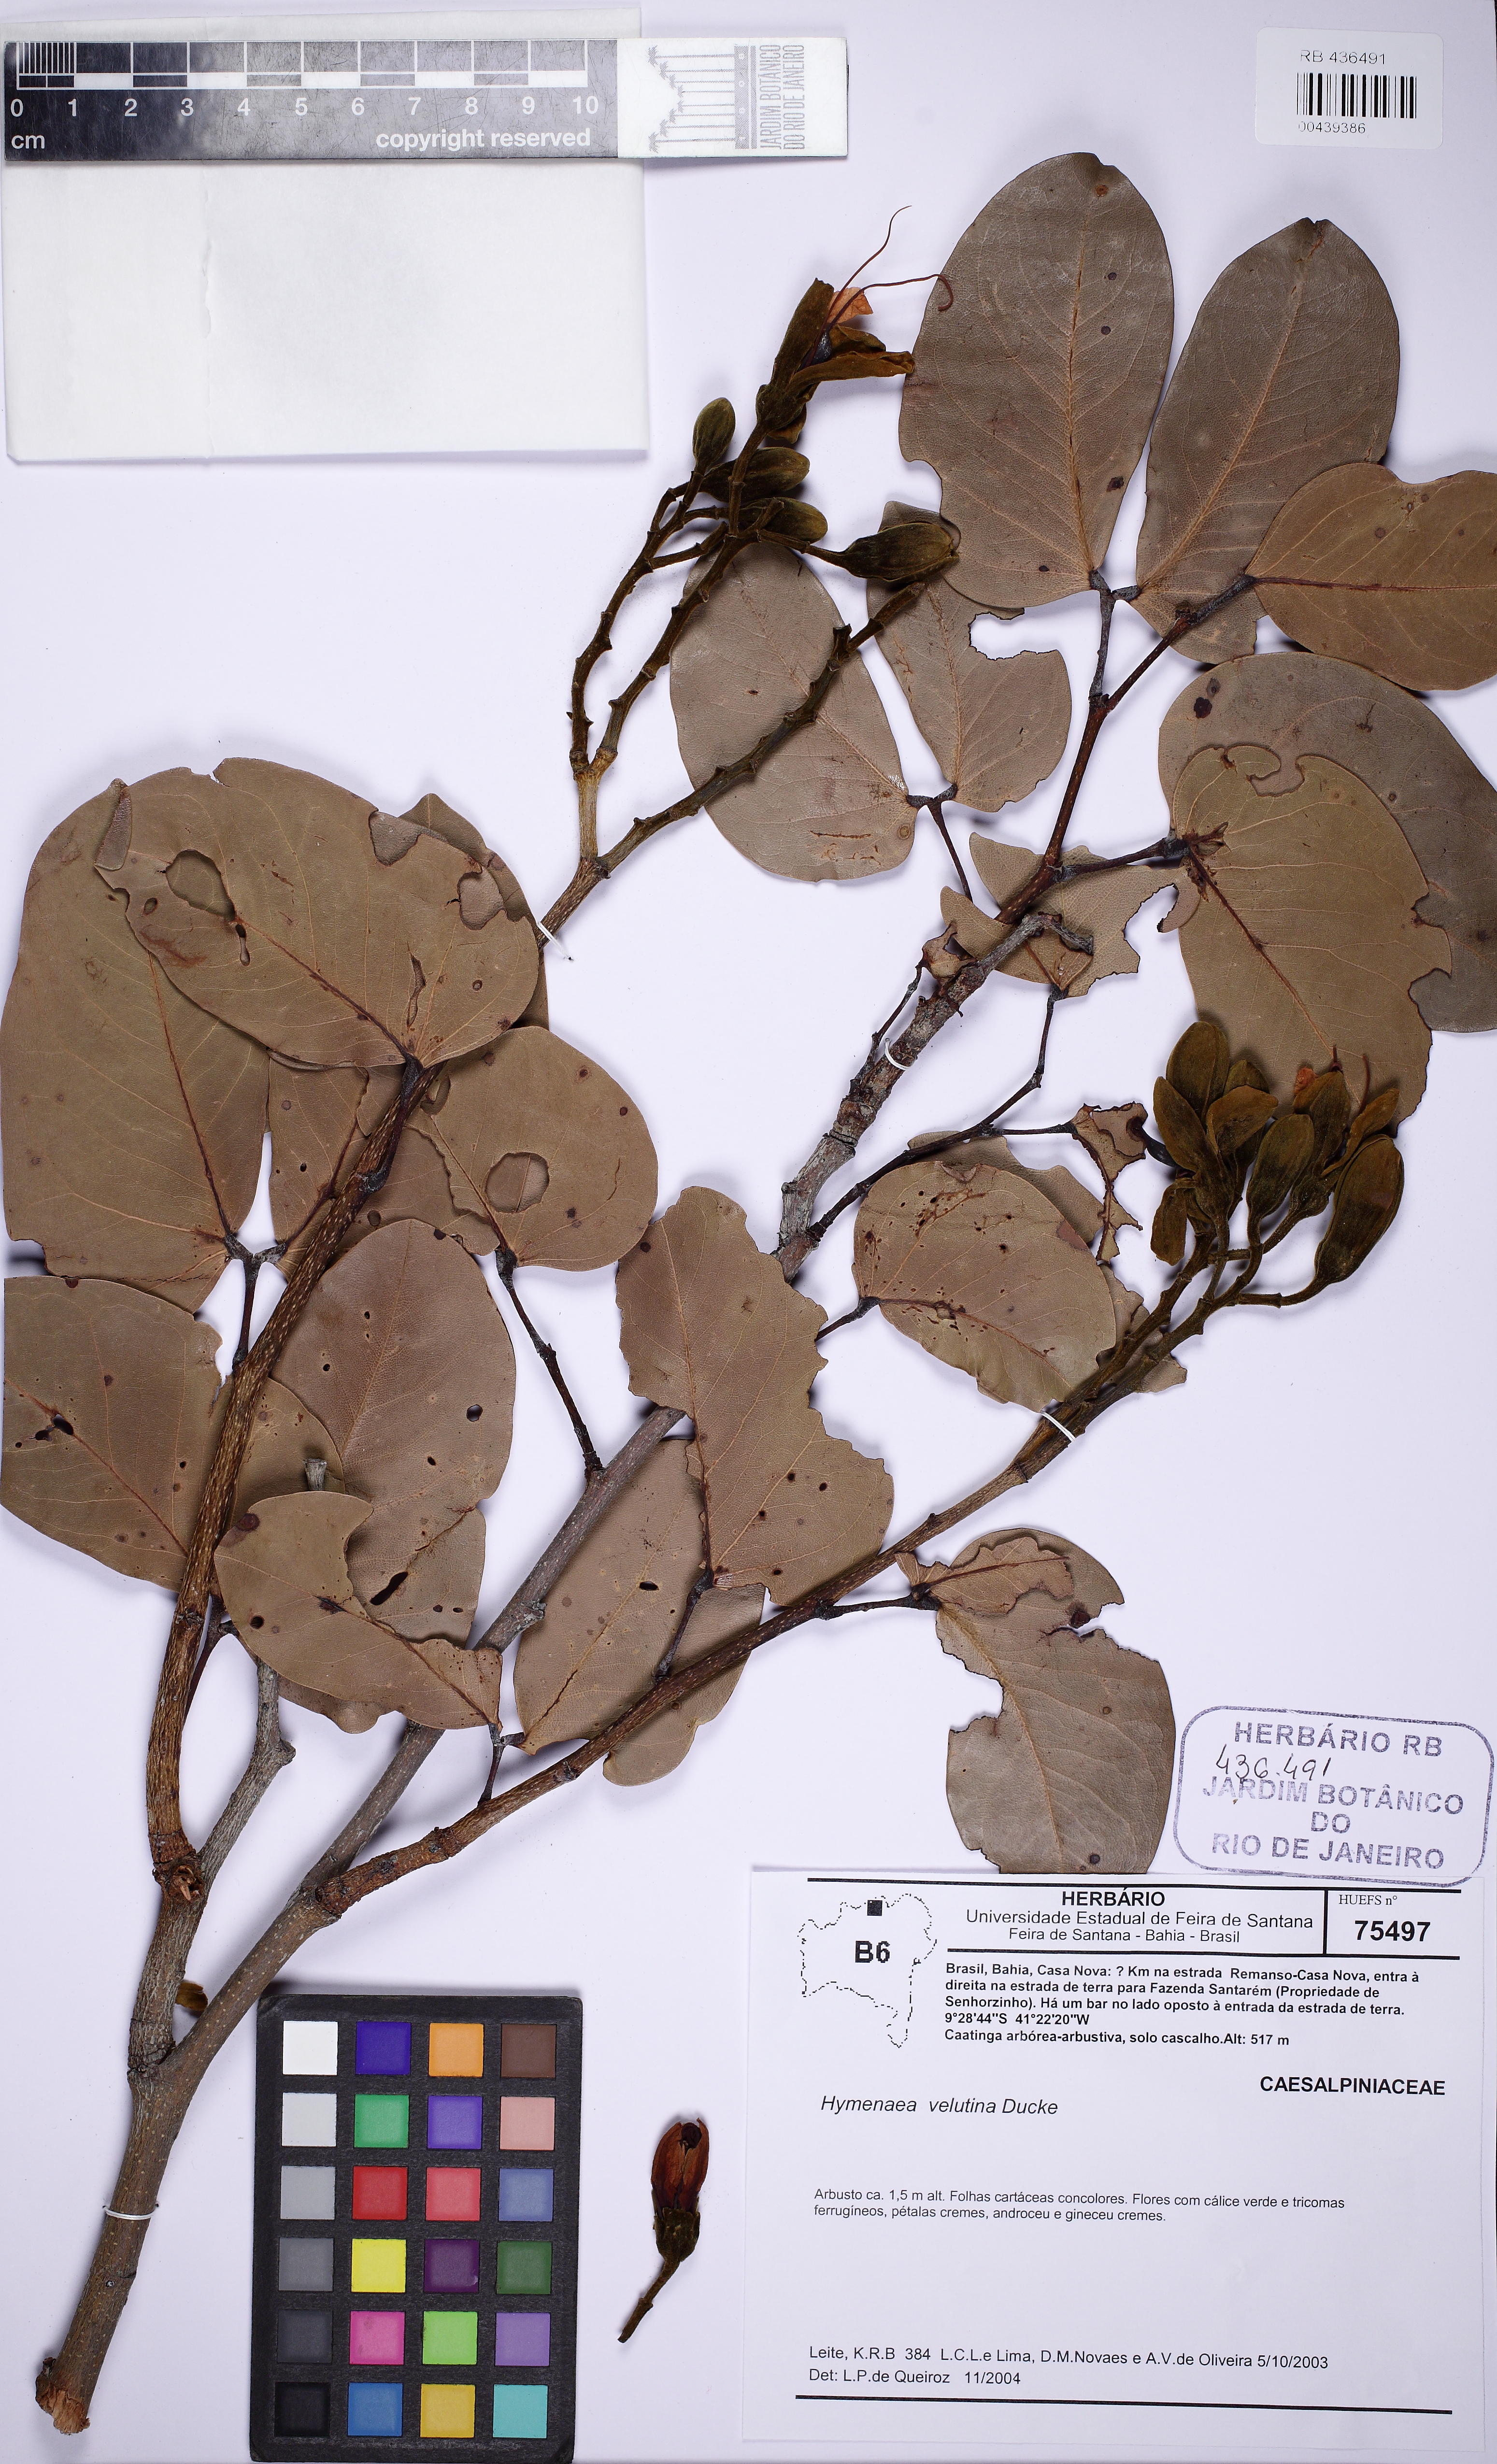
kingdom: Plantae
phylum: Tracheophyta
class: Magnoliopsida
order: Fabales
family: Fabaceae
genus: Hymenaea
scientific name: Hymenaea velutina
